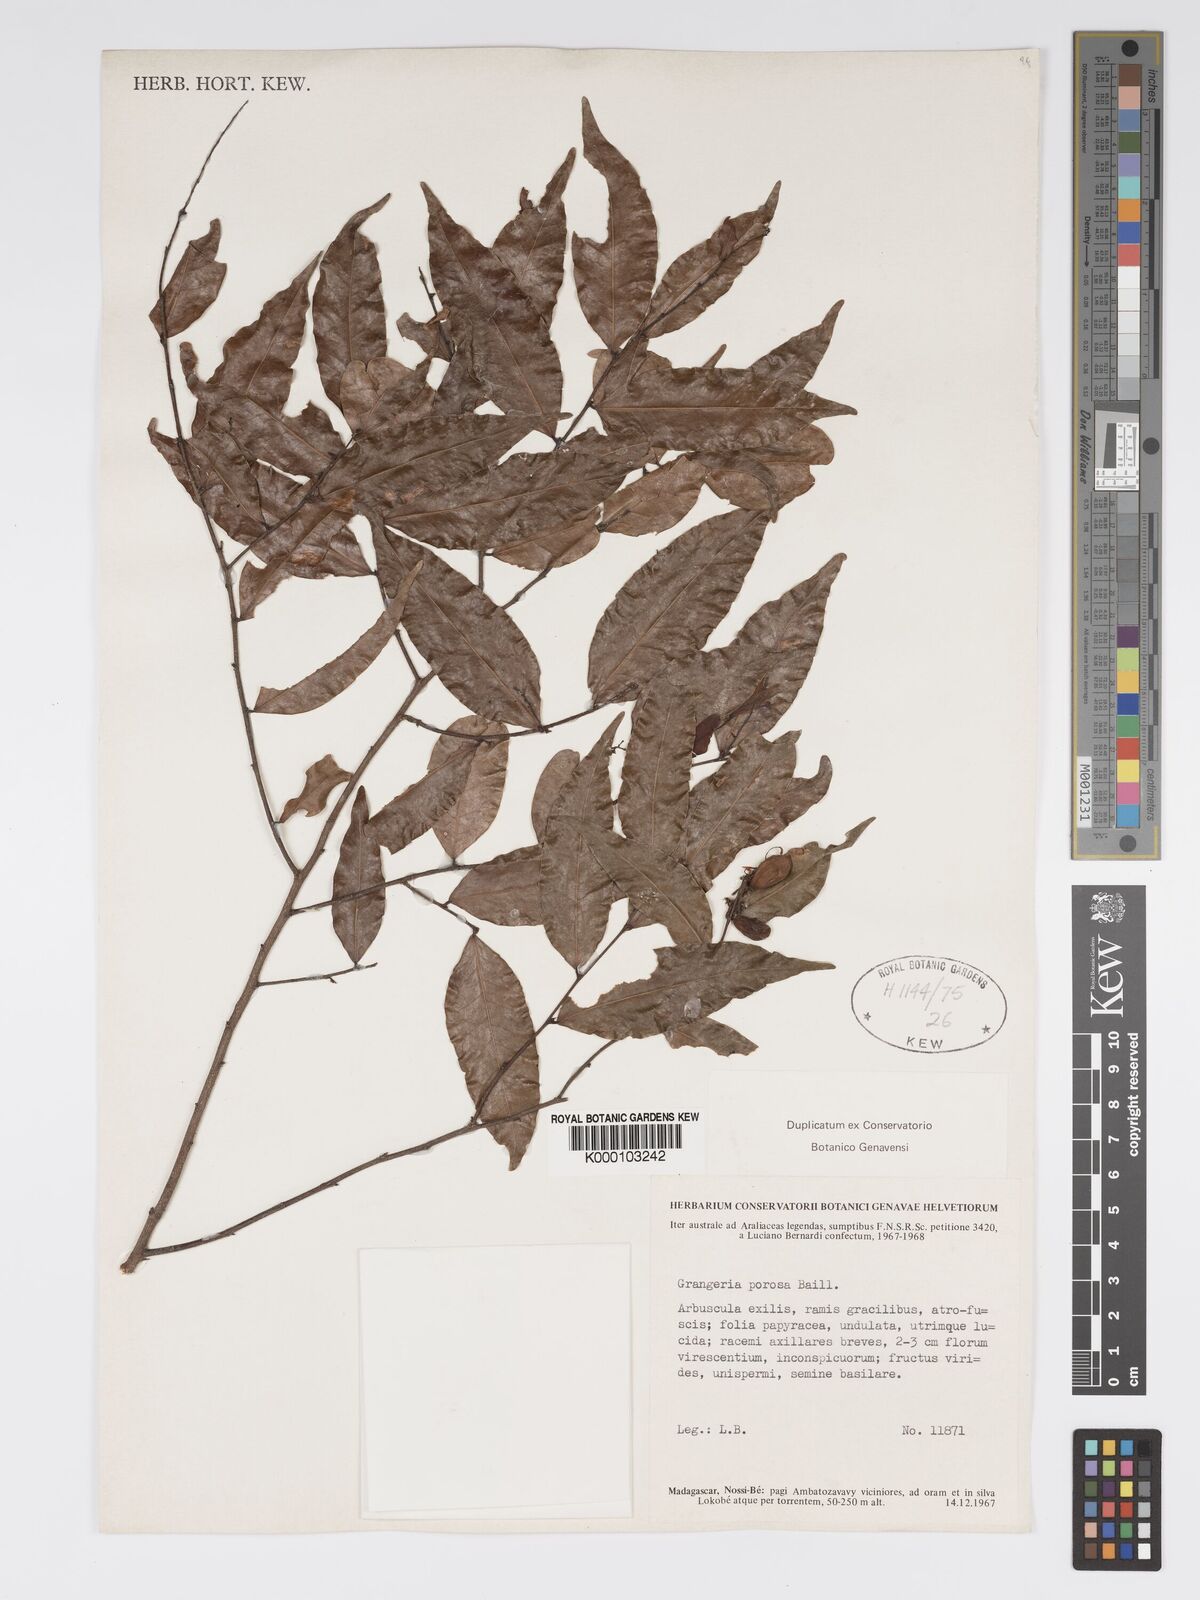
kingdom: Plantae
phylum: Tracheophyta
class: Magnoliopsida
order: Malpighiales
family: Chrysobalanaceae
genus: Grangeria
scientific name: Grangeria porosa
